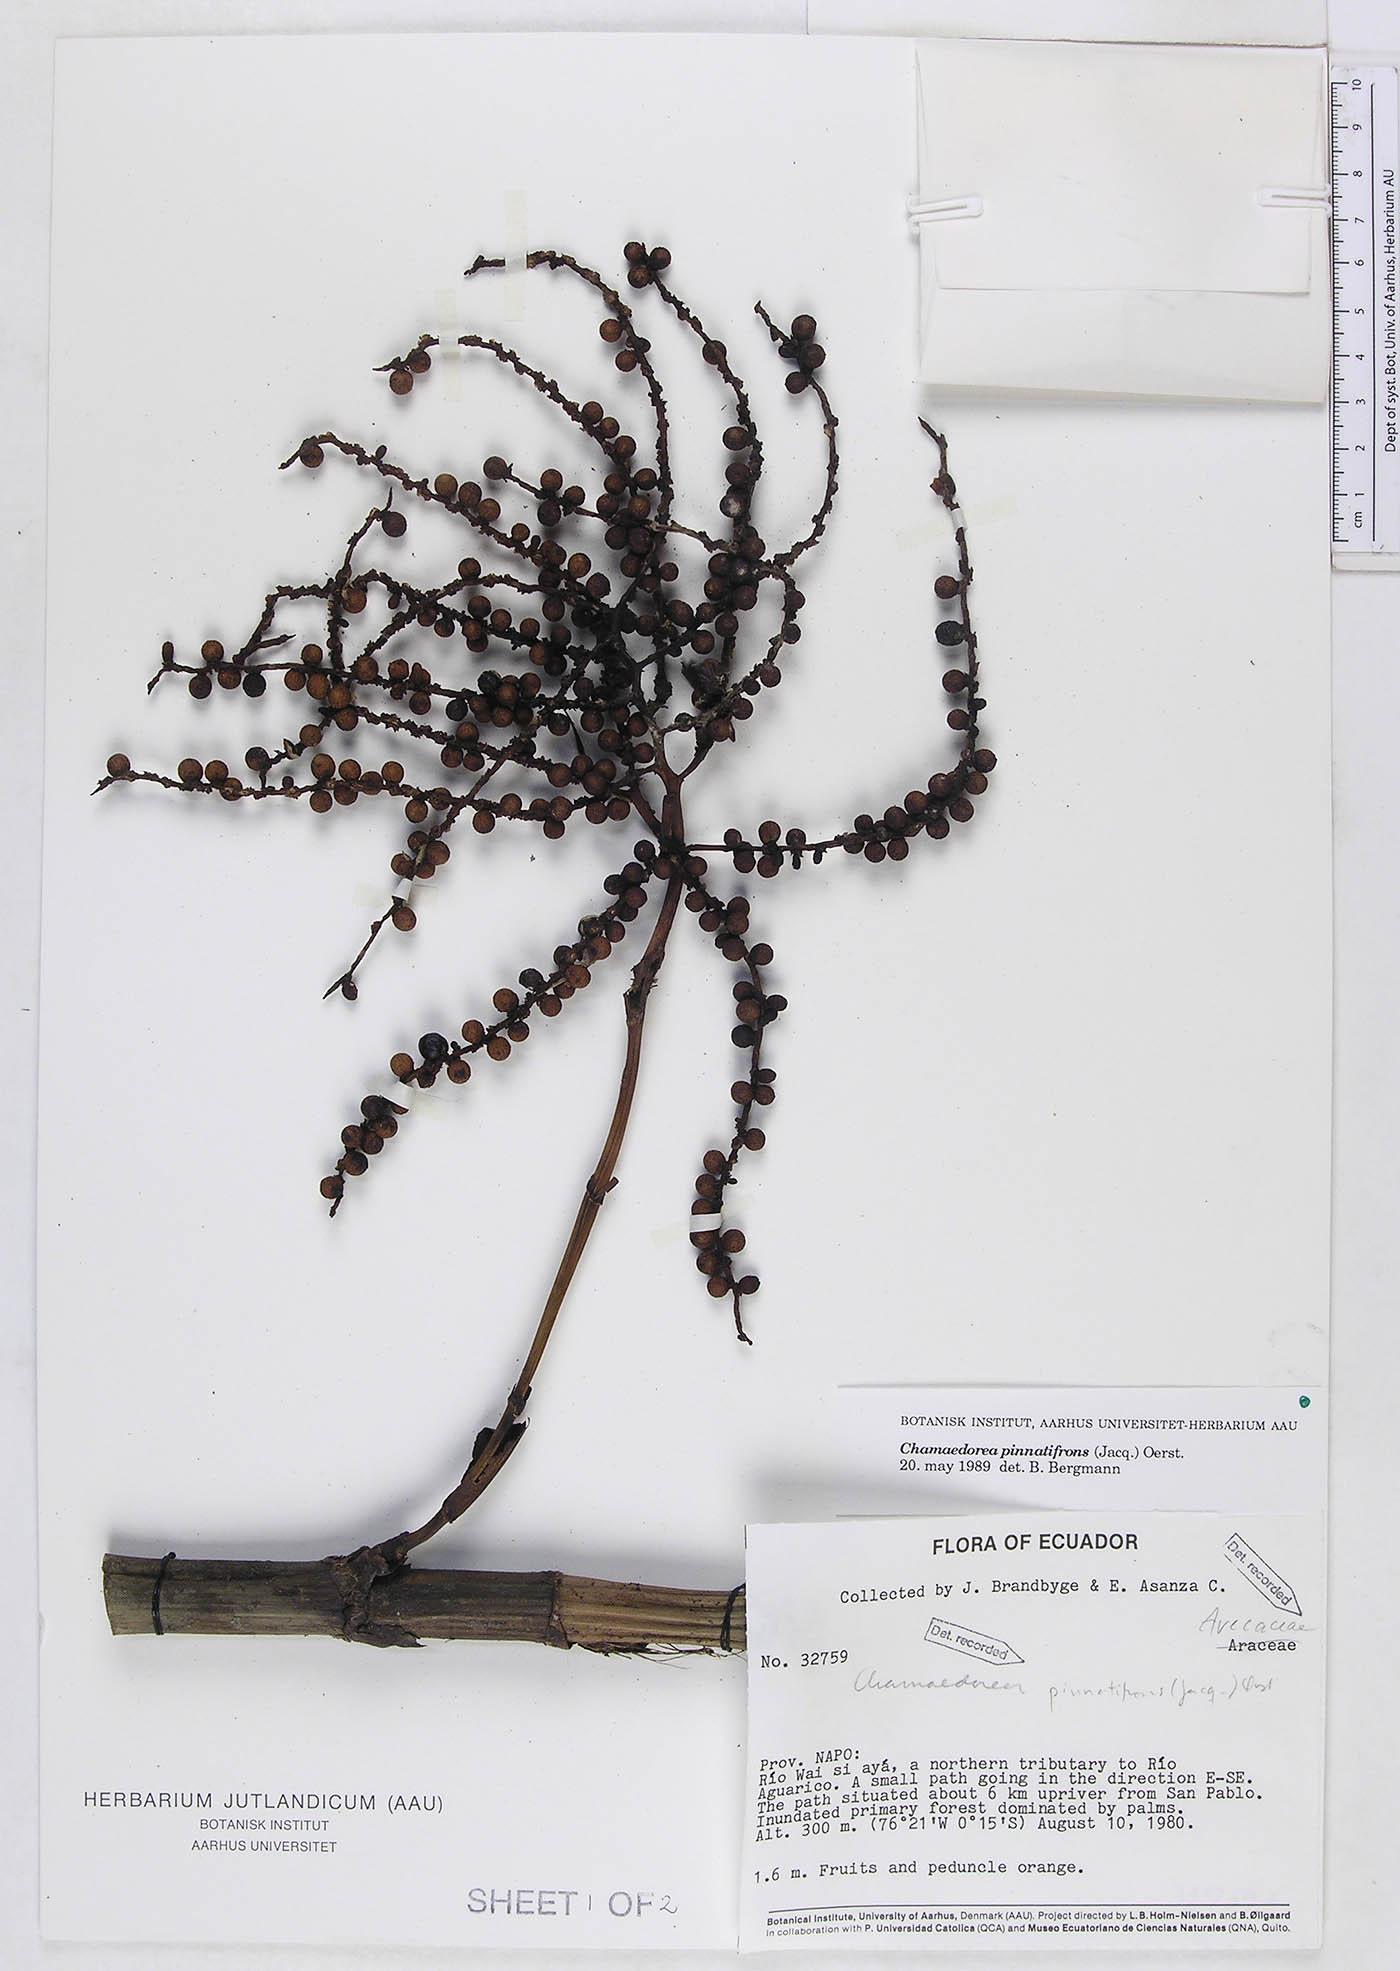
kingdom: Plantae
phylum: Tracheophyta
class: Liliopsida
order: Arecales
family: Arecaceae
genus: Chamaedorea
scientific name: Chamaedorea pinnatifrons
